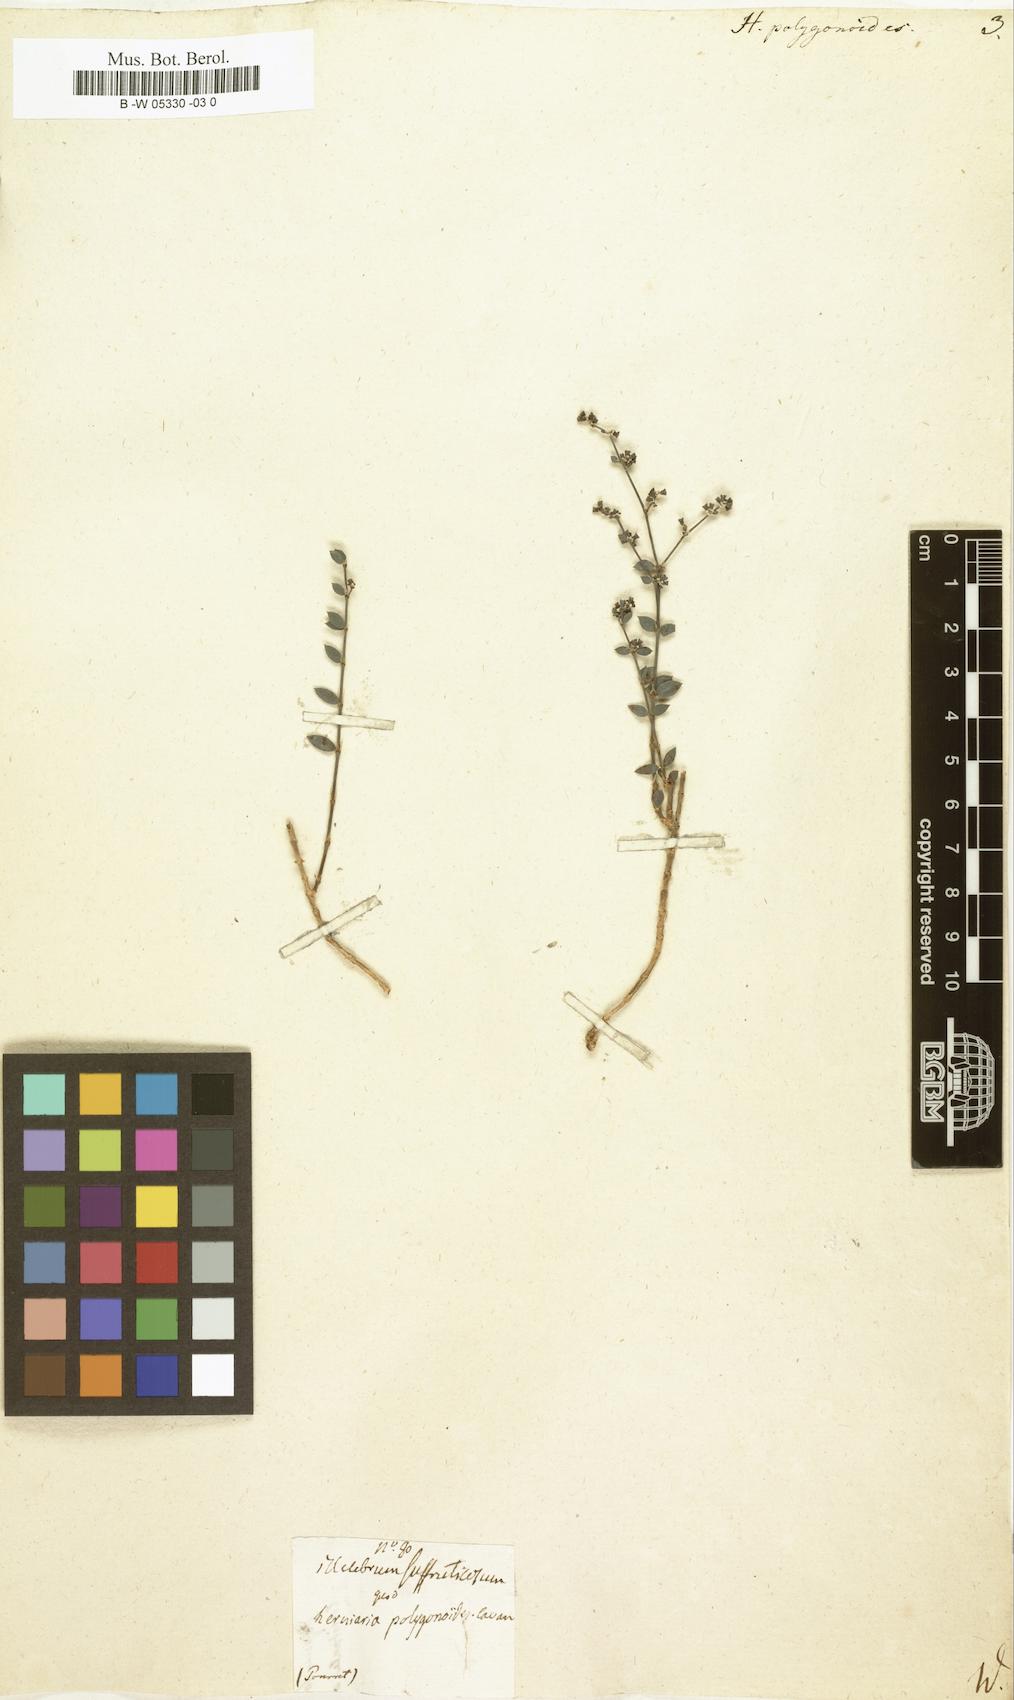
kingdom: Plantae
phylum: Tracheophyta
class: Magnoliopsida
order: Caryophyllales
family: Caryophyllaceae
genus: Paronychia
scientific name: Paronychia suffruticosa
